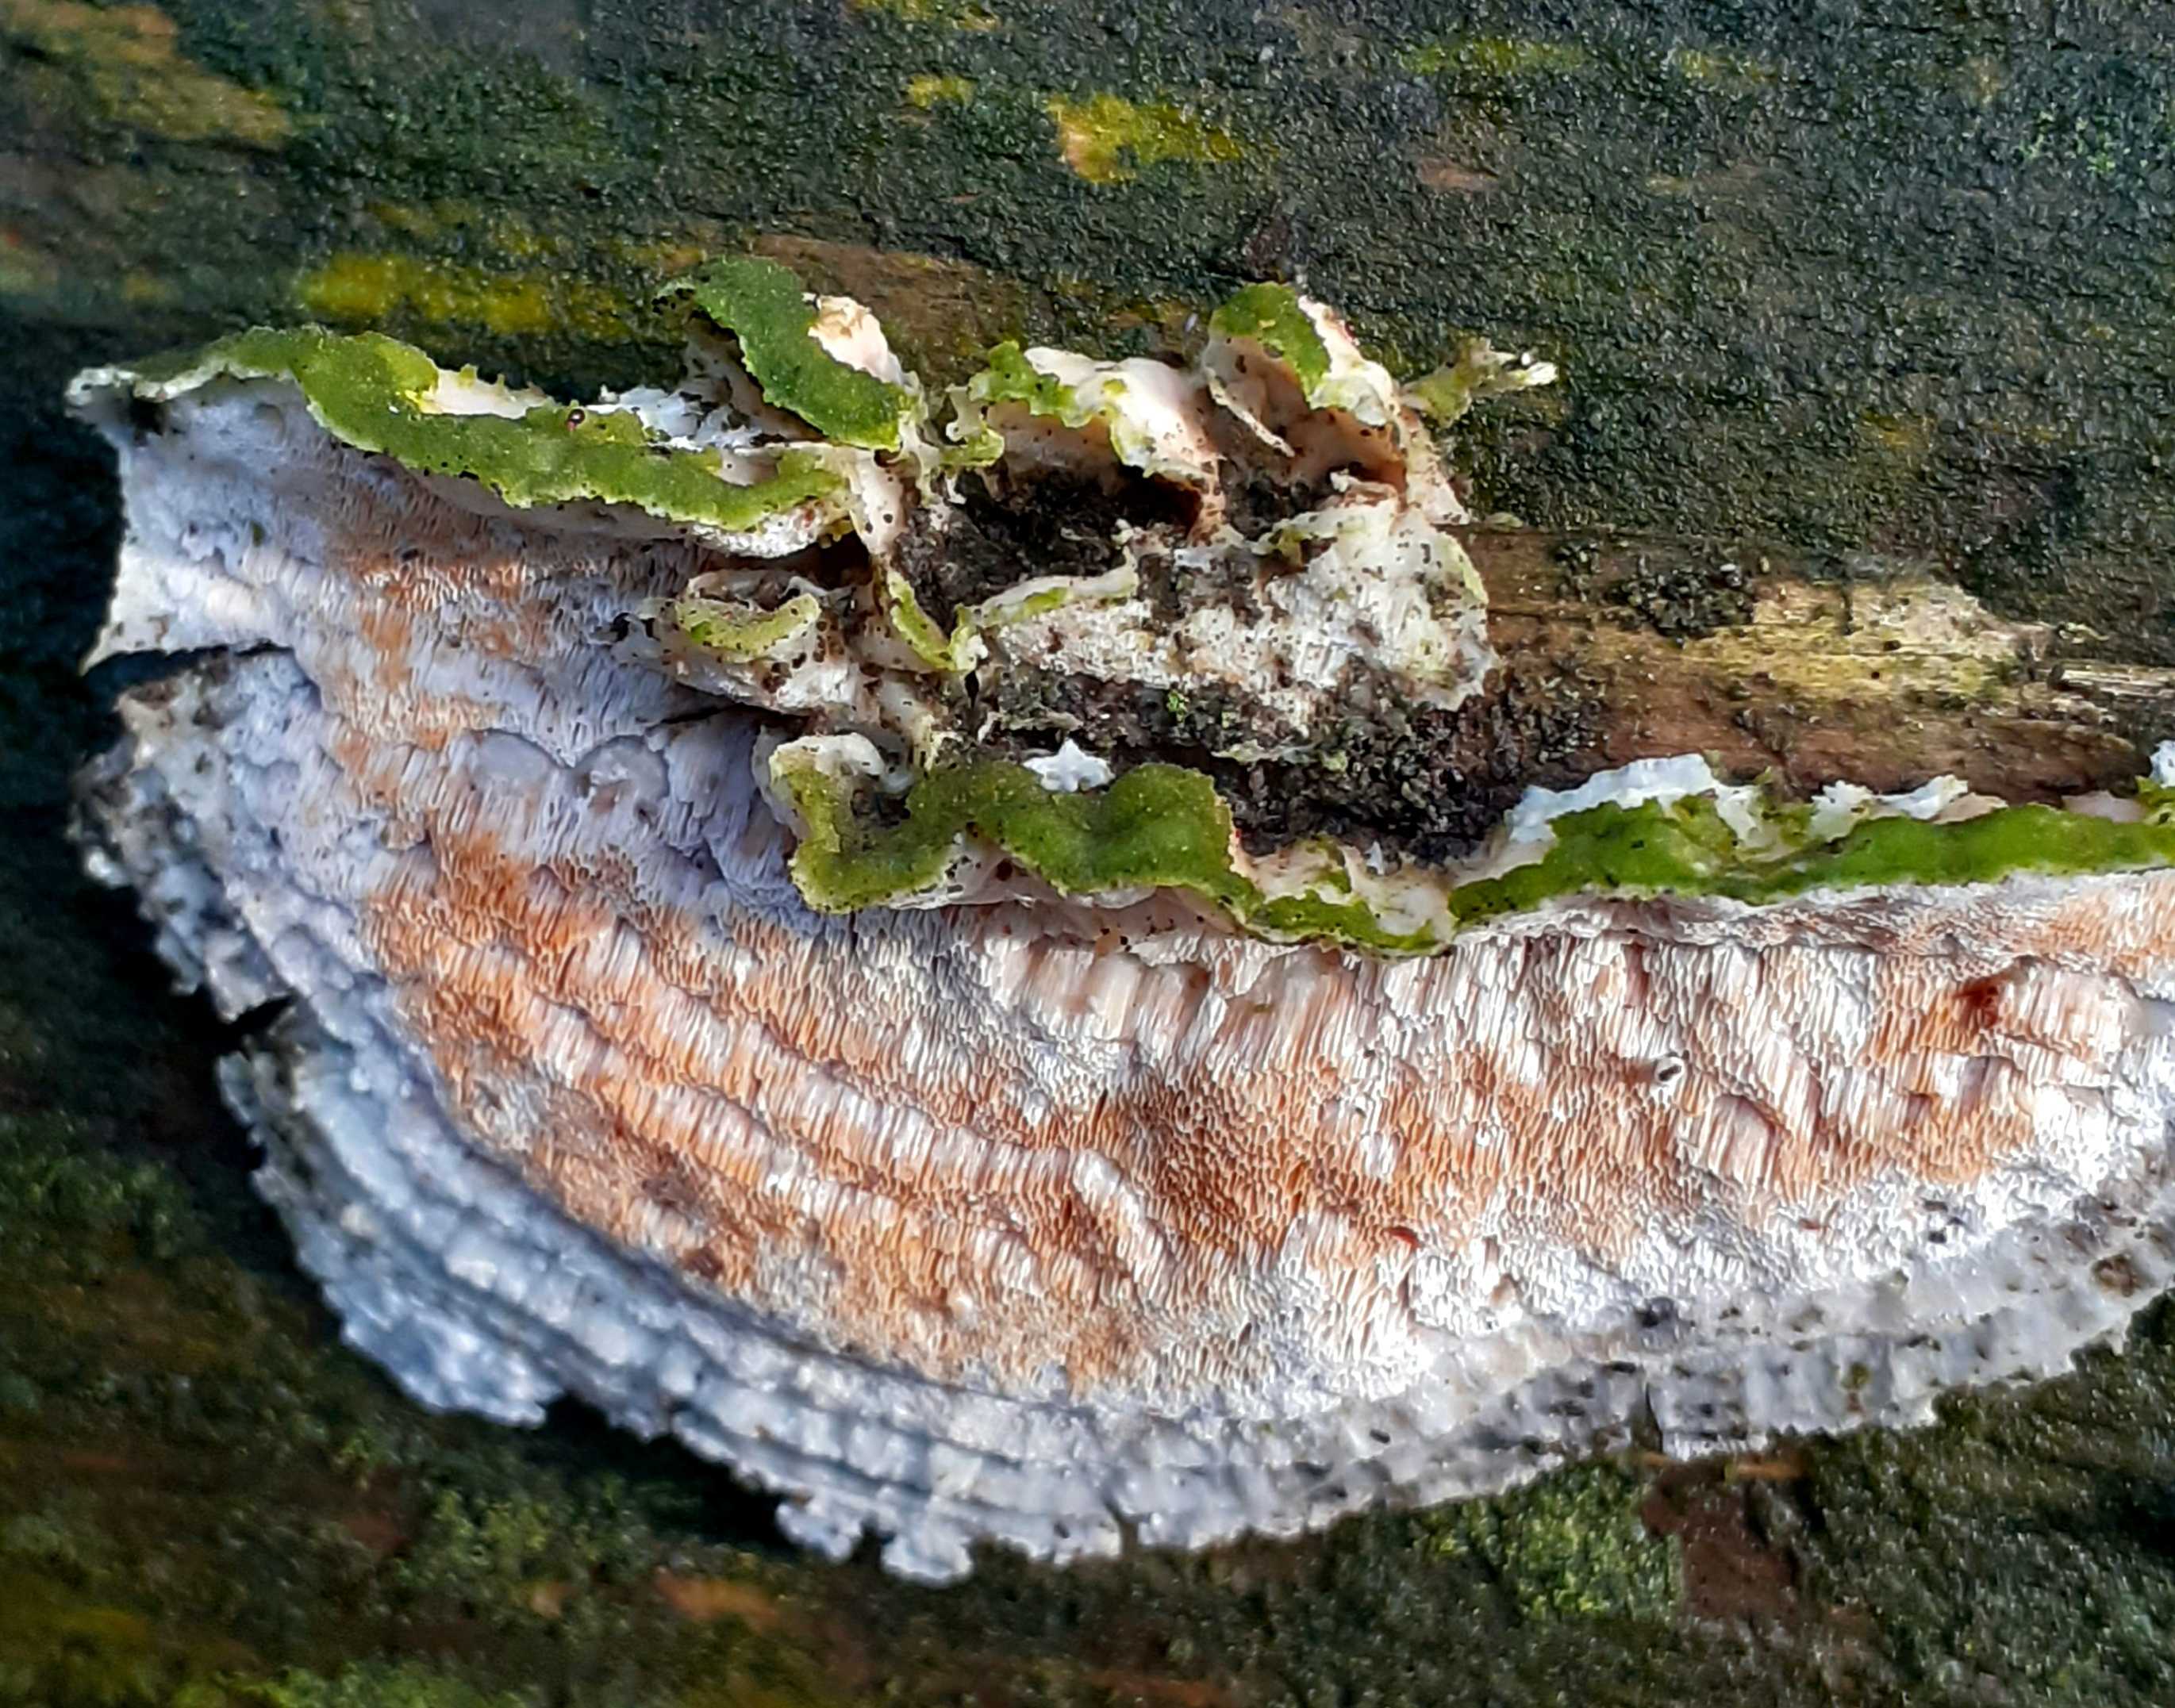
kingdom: Fungi
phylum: Basidiomycota
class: Agaricomycetes
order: Polyporales
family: Incrustoporiaceae
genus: Skeletocutis
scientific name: Skeletocutis amorpha
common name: orange krystalporesvamp
